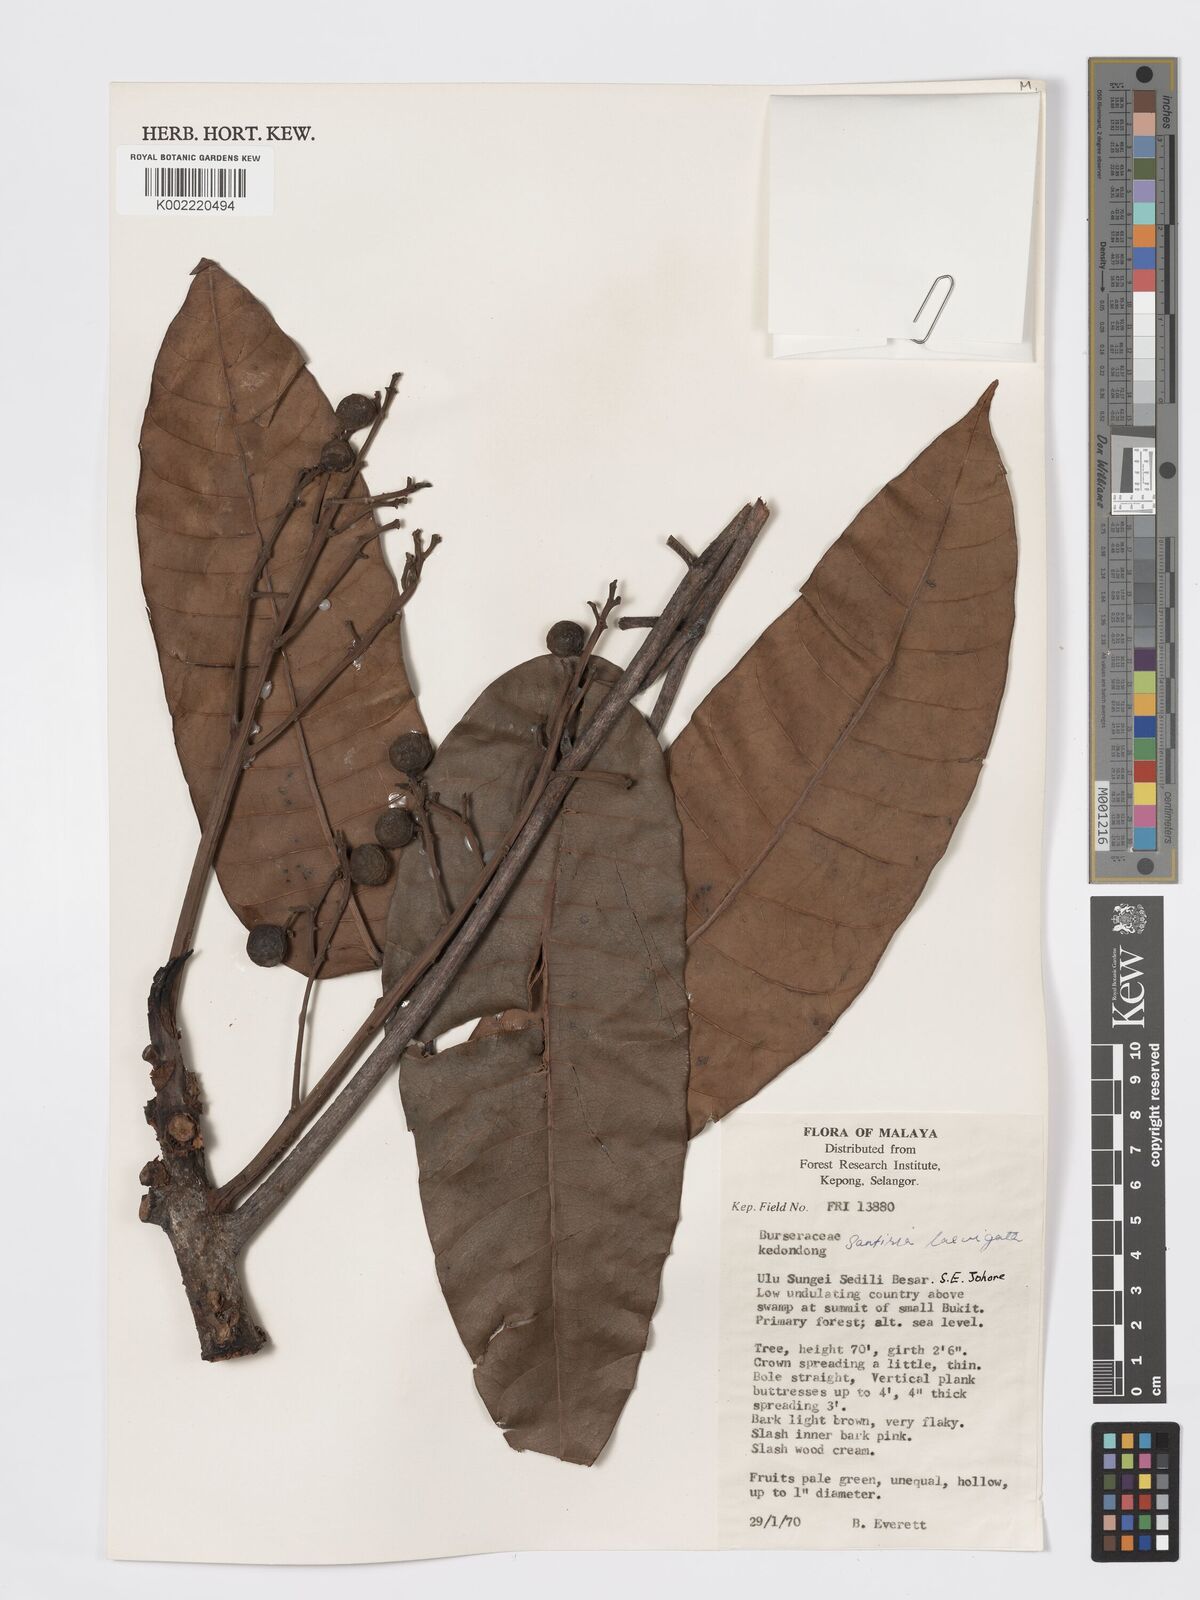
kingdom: Plantae
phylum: Tracheophyta
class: Magnoliopsida
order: Sapindales
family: Burseraceae
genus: Santiria
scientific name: Santiria laevigata
